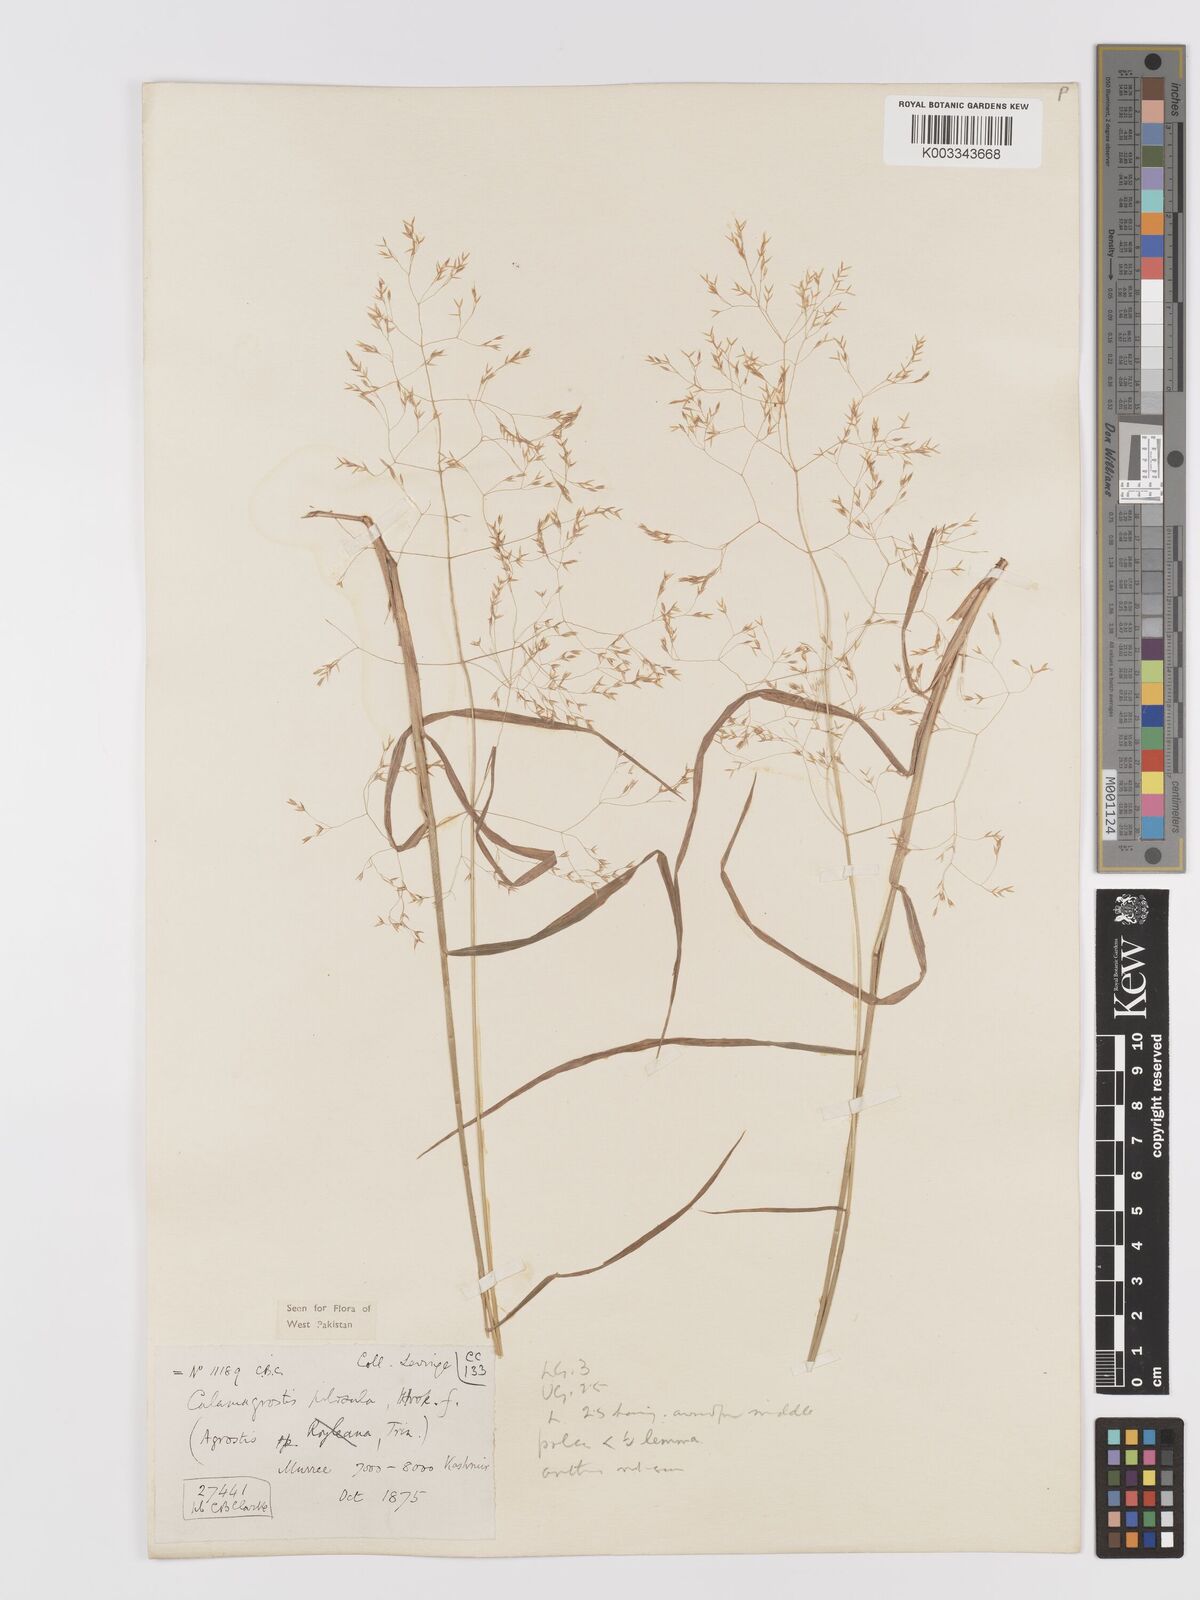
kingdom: Plantae
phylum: Tracheophyta
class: Liliopsida
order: Poales
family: Poaceae
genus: Agrostis
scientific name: Agrostis pilosula
